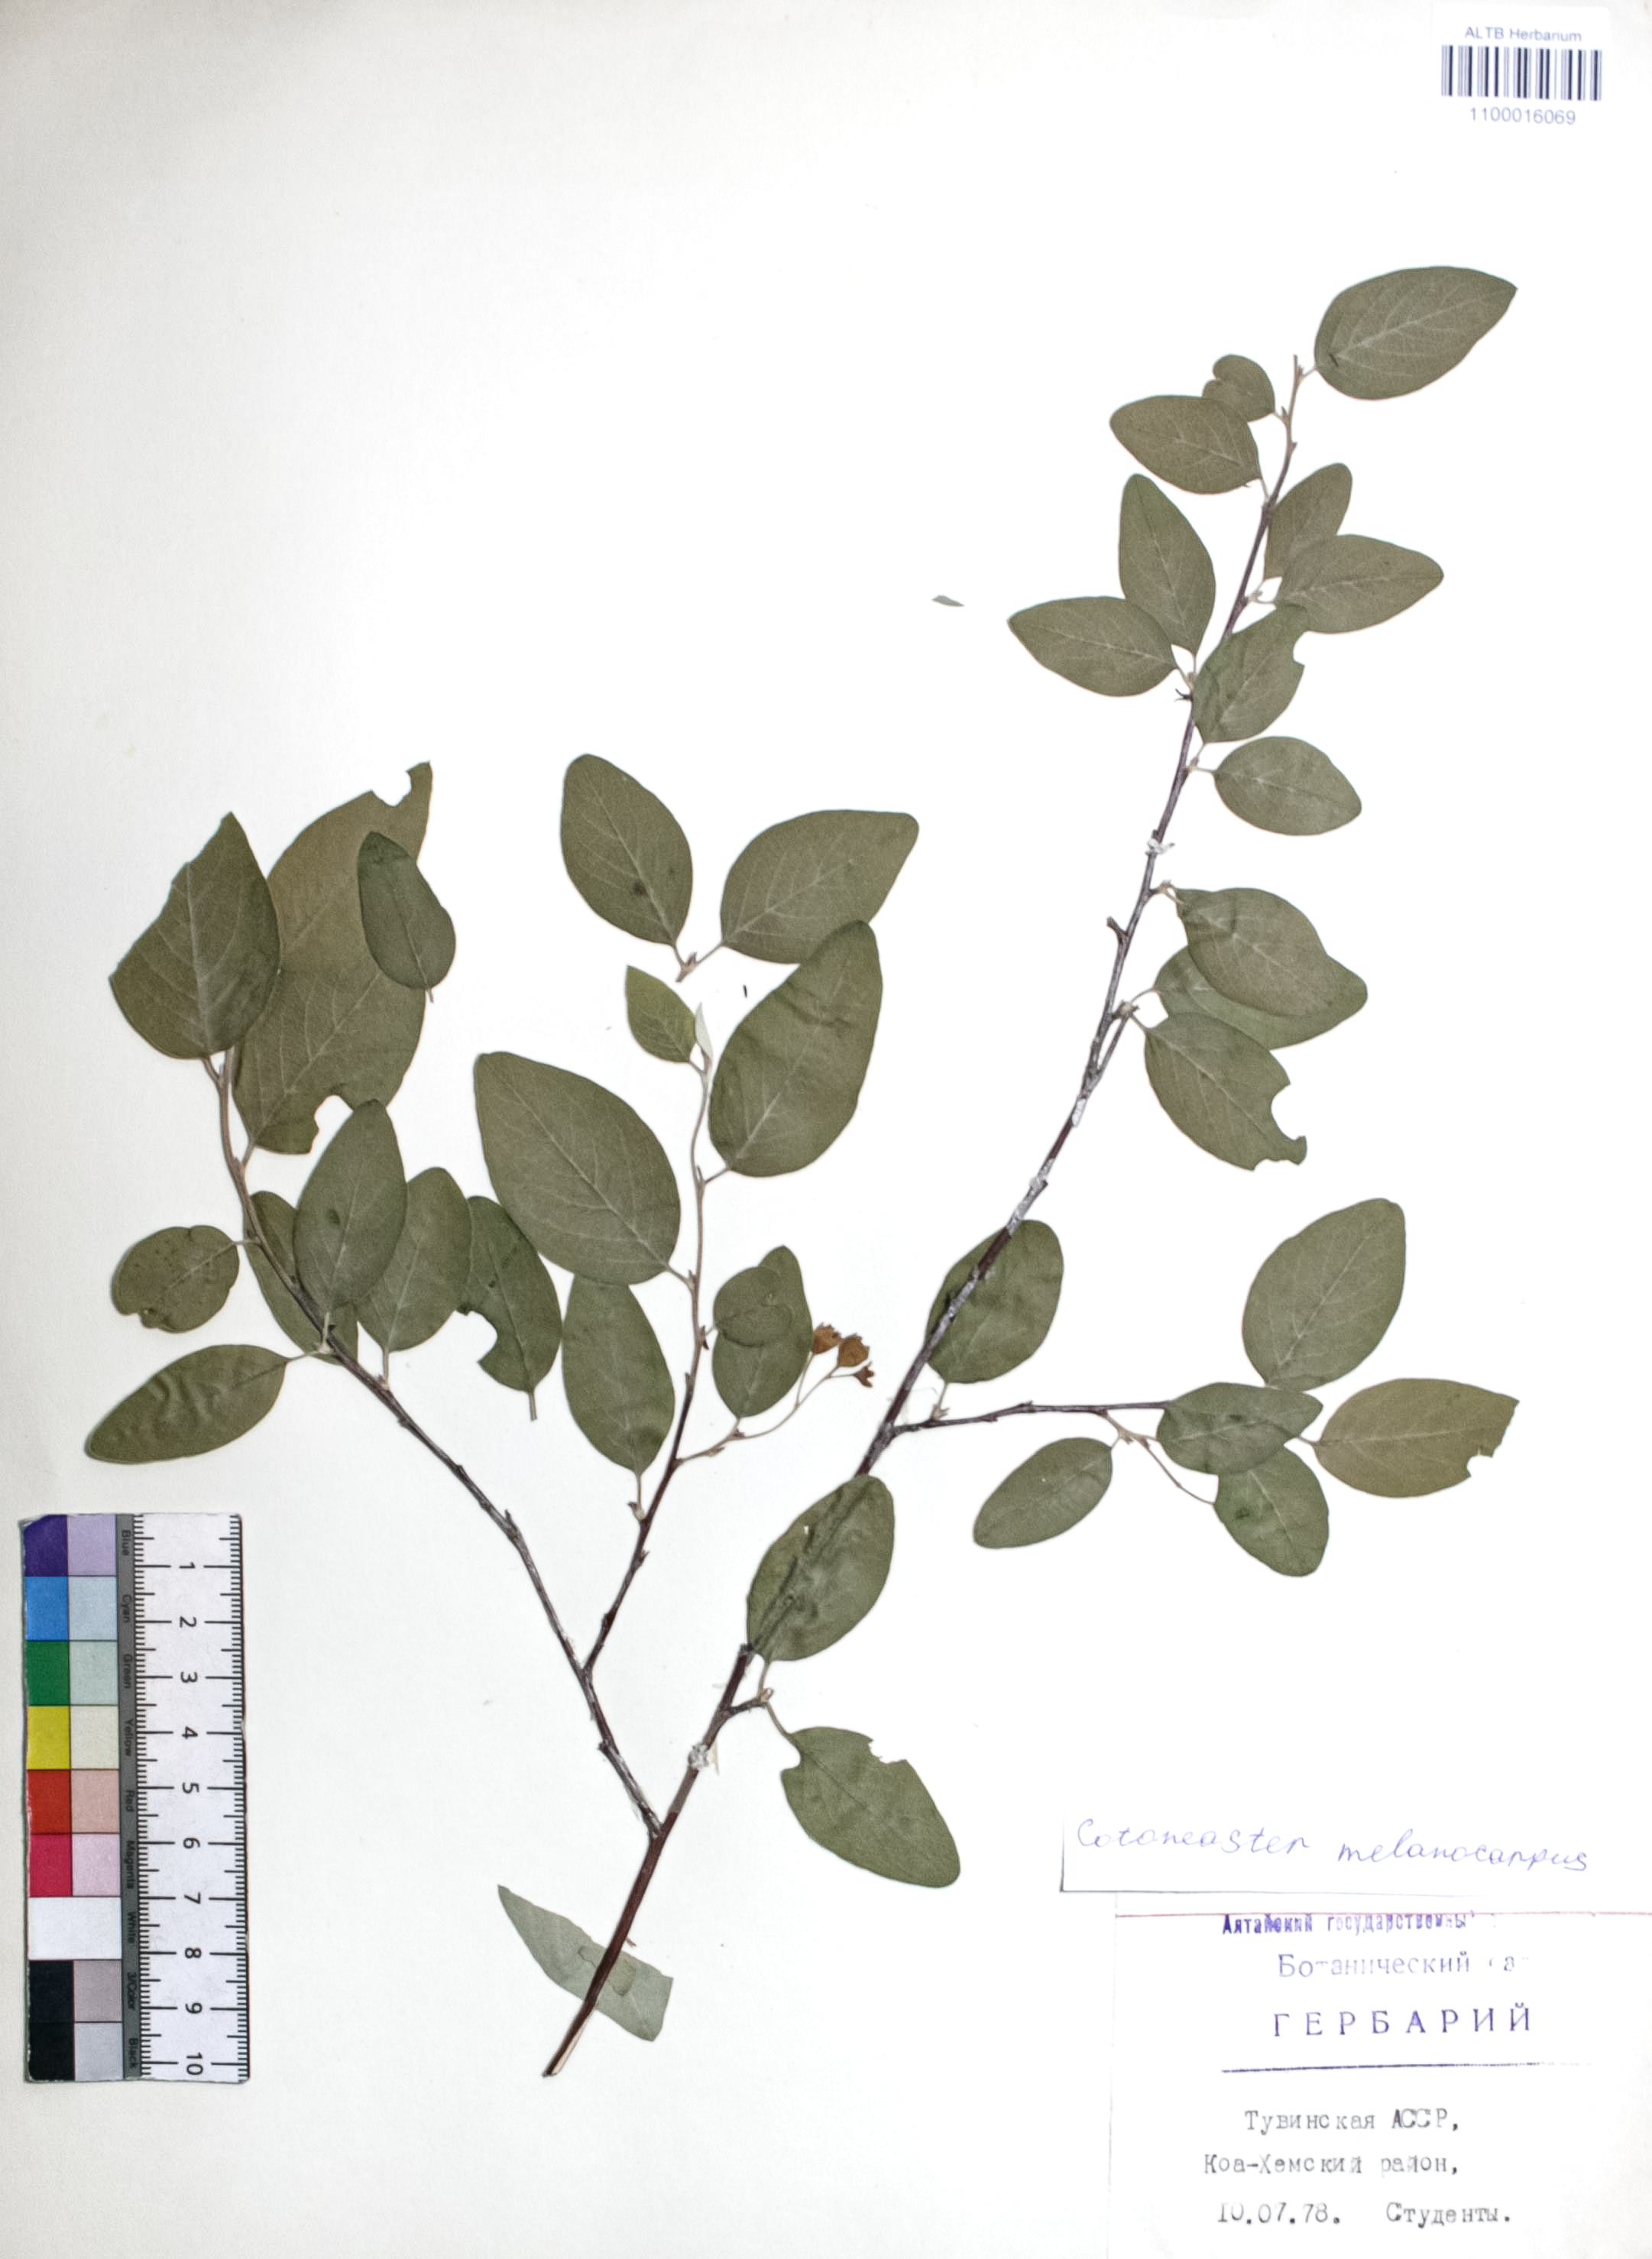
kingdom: Plantae
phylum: Tracheophyta
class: Magnoliopsida
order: Rosales
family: Rosaceae
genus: Cotoneaster
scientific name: Cotoneaster niger
